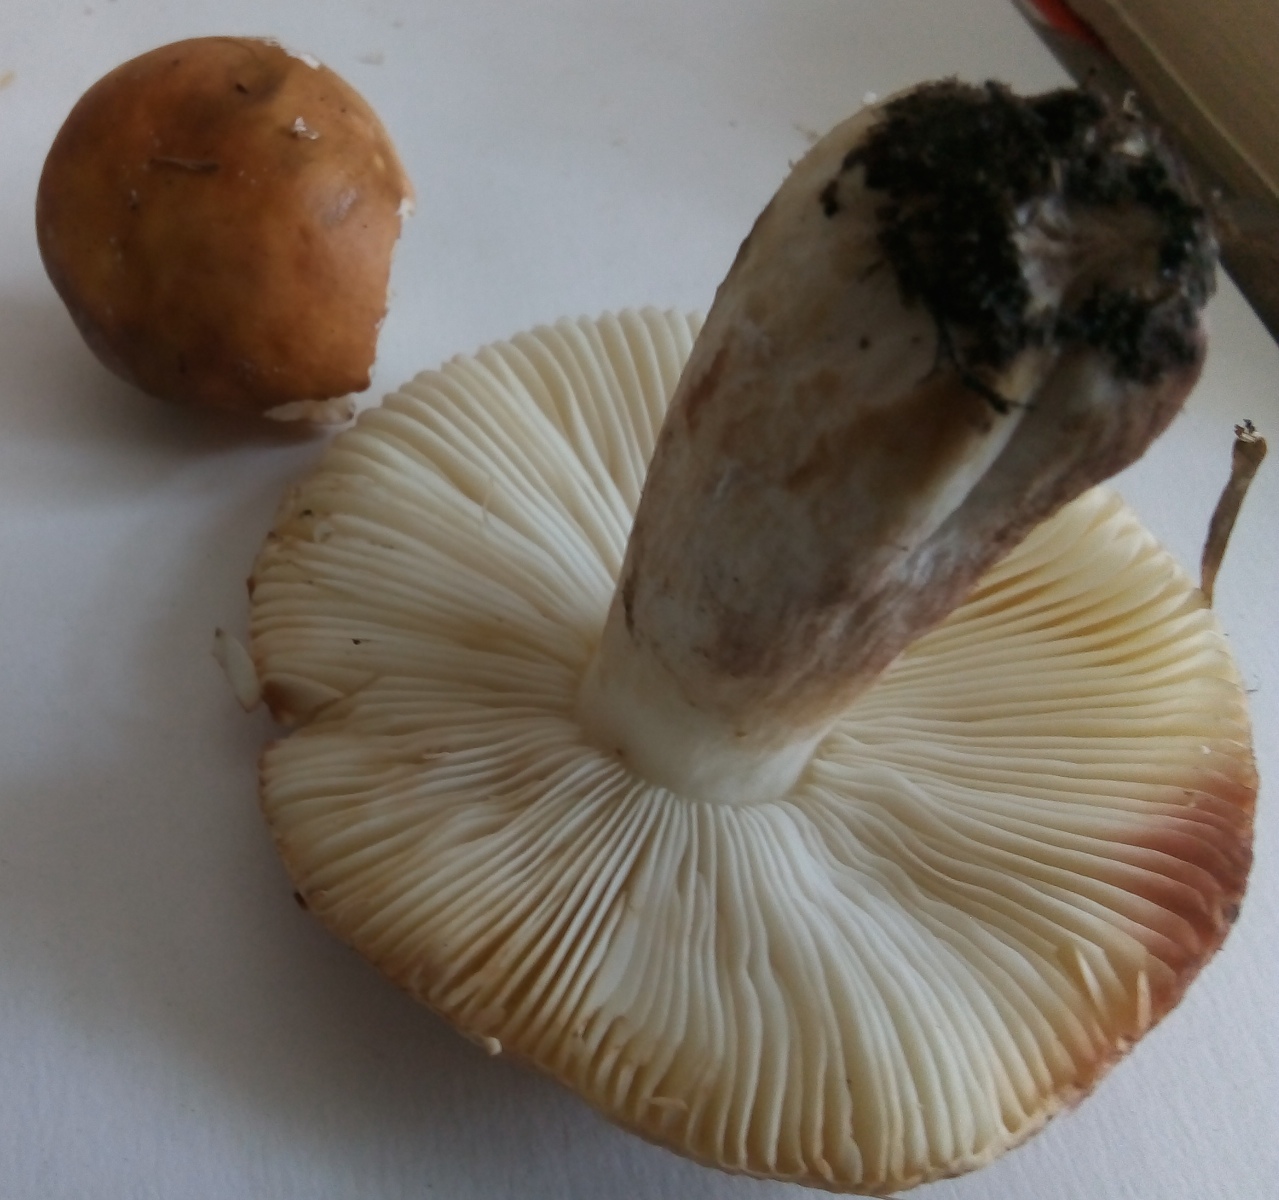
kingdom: Fungi
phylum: Basidiomycota
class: Agaricomycetes
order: Russulales
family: Russulaceae
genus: Russula
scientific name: Russula
